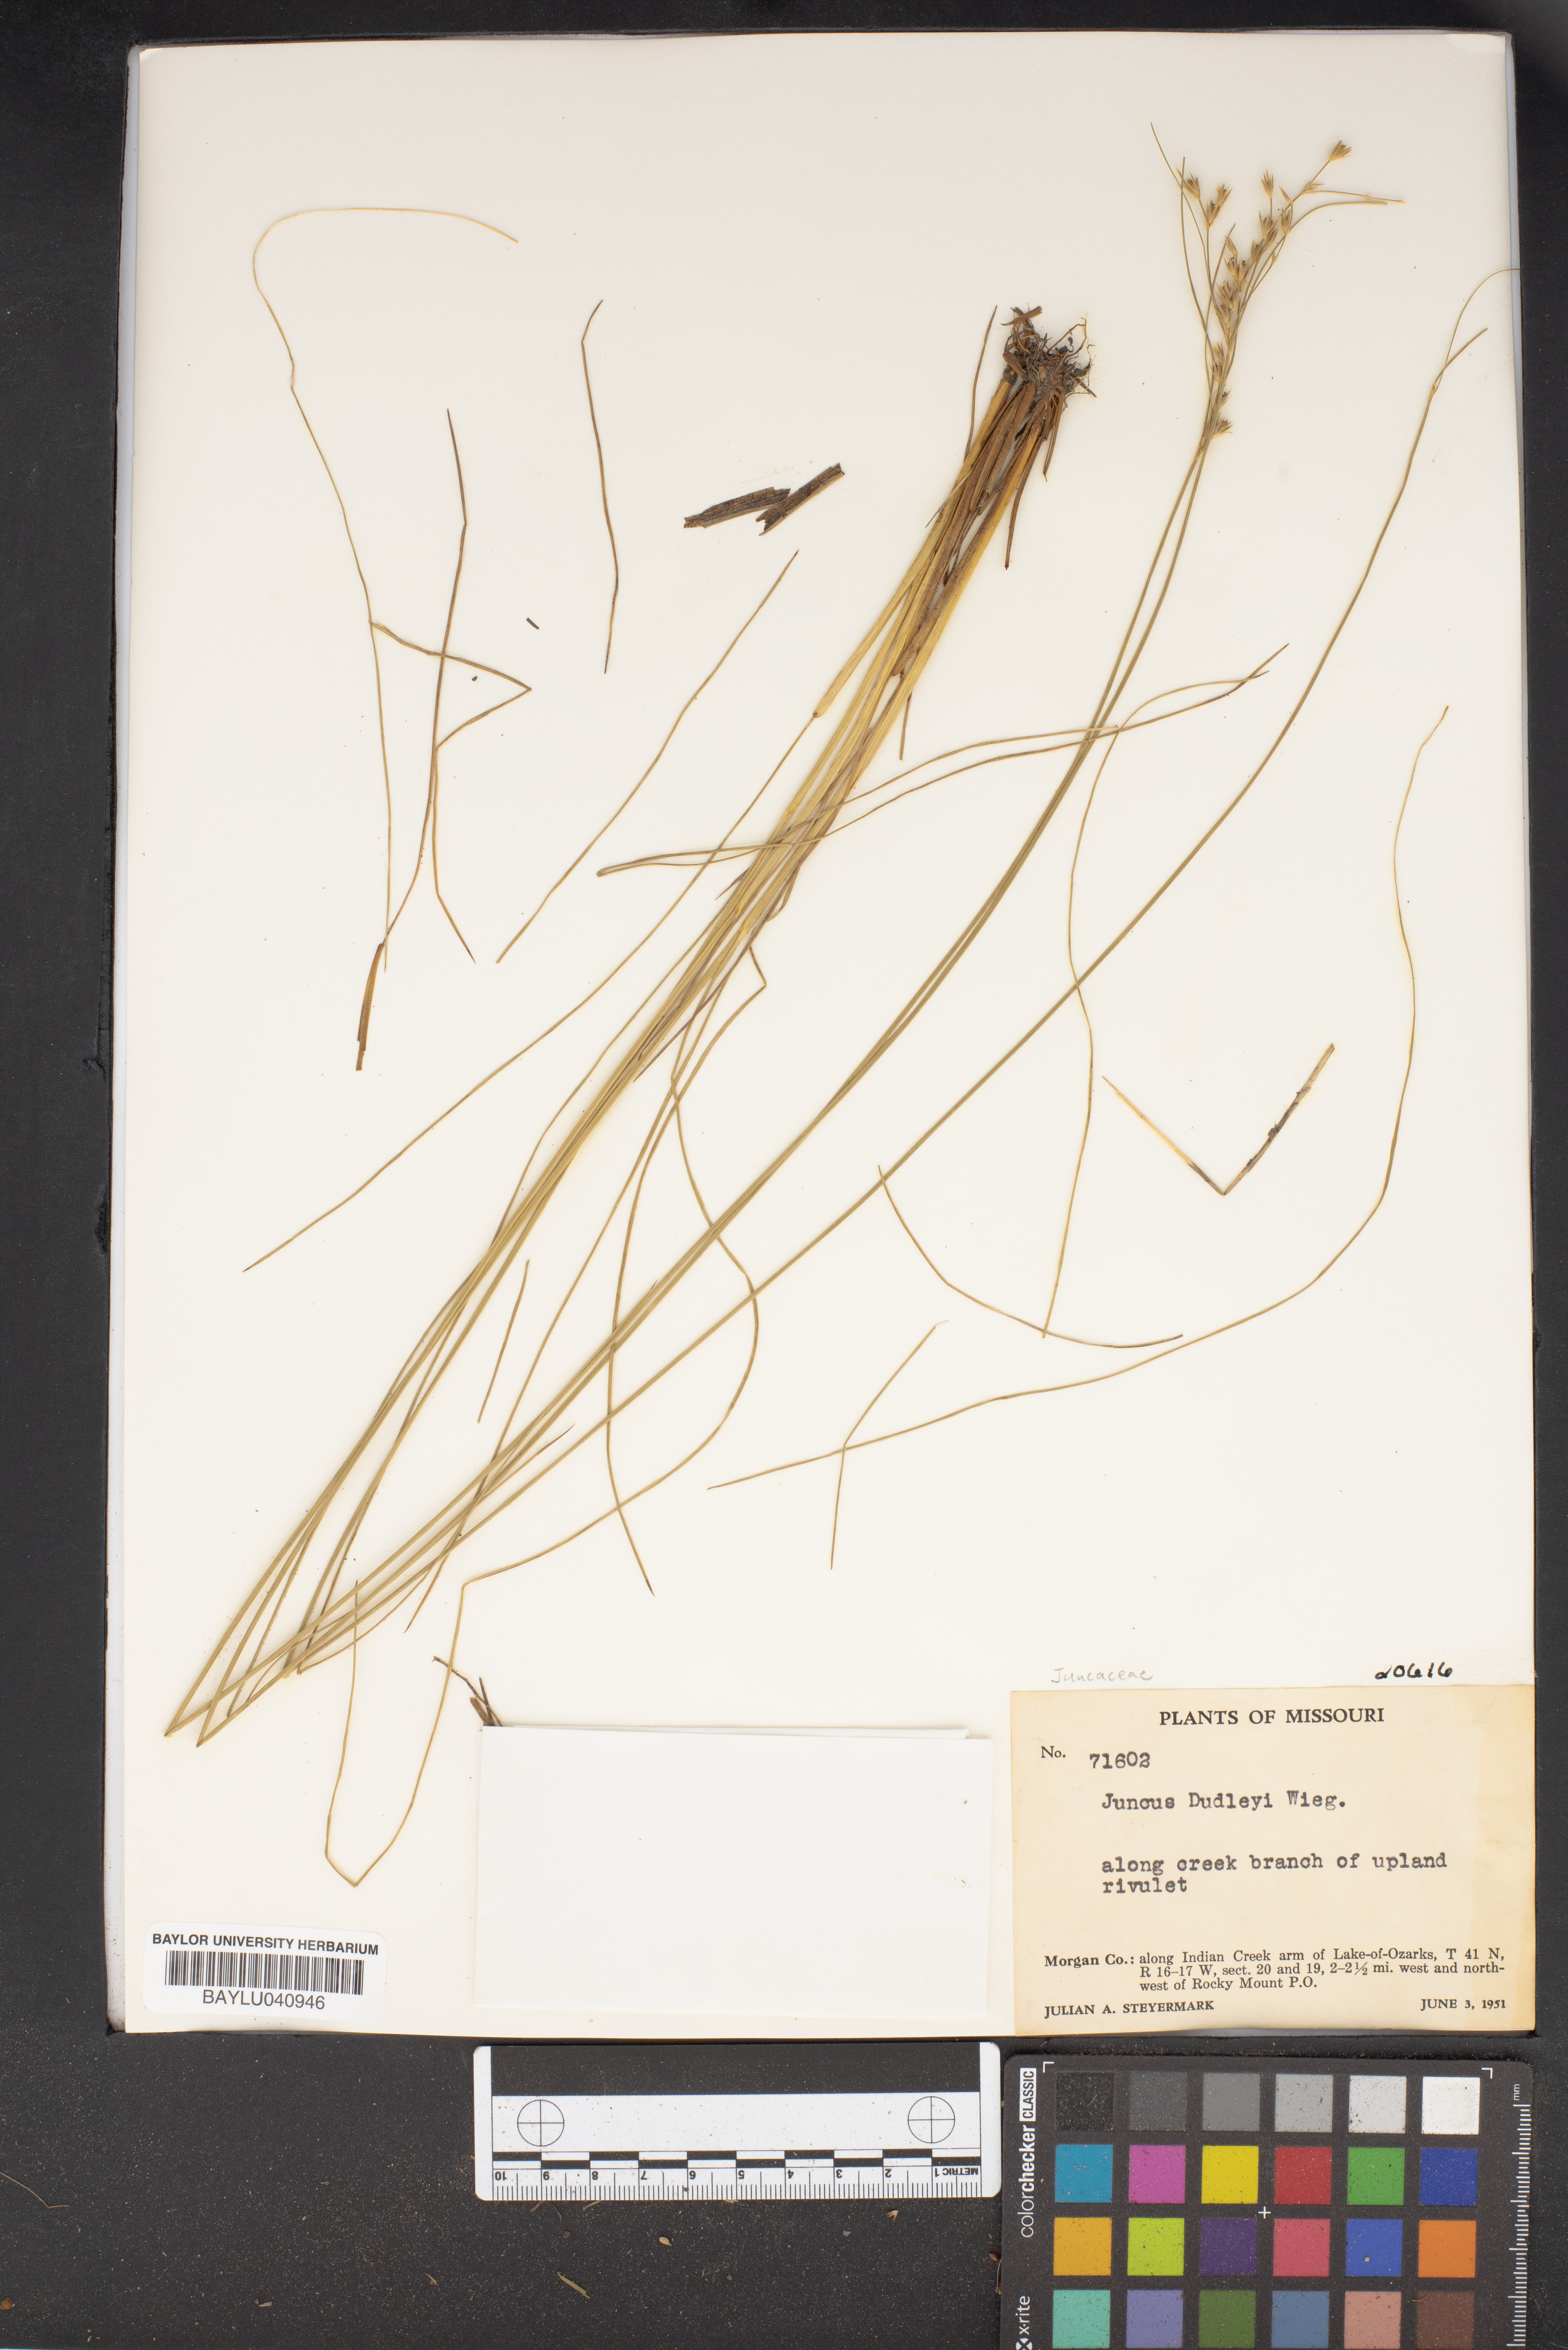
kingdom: Plantae
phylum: Tracheophyta
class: Liliopsida
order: Poales
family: Juncaceae
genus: Juncus
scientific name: Juncus dudleyi
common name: Dudley's rush
